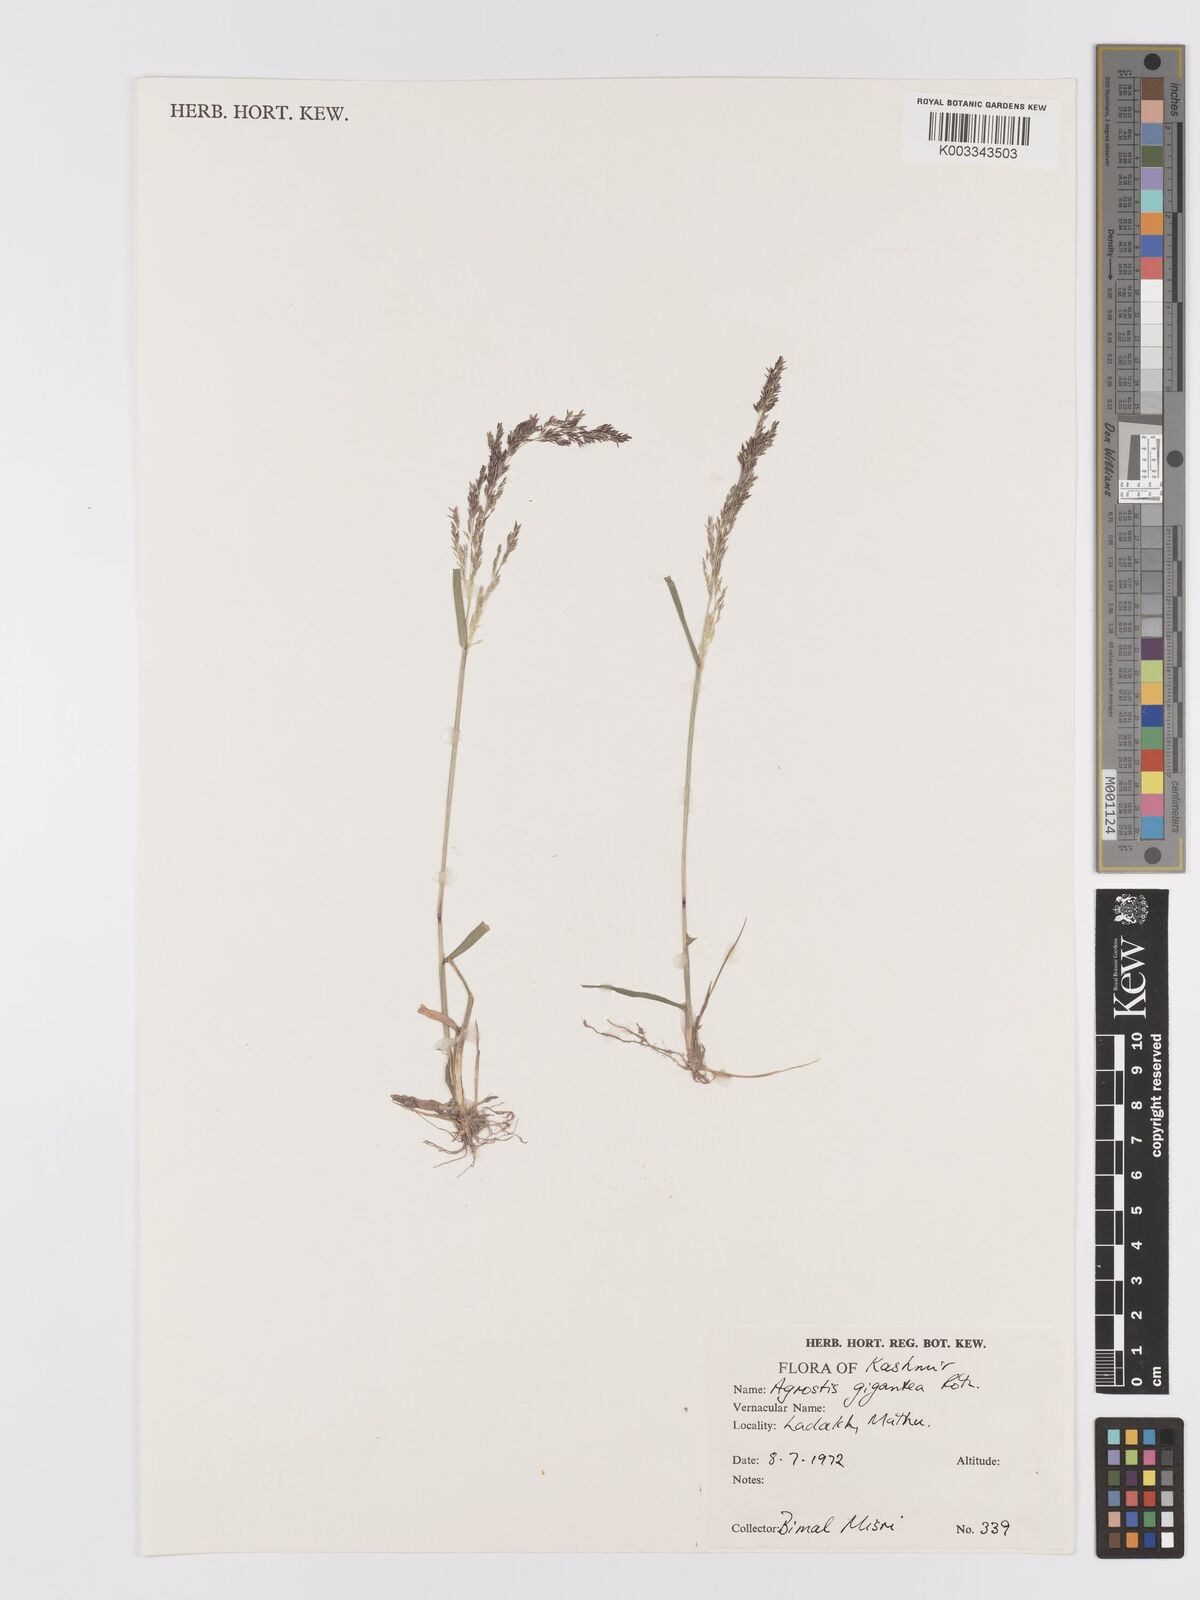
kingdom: Plantae
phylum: Tracheophyta
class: Liliopsida
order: Poales
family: Poaceae
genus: Agrostis
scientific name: Agrostis gigantea
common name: Black bent
